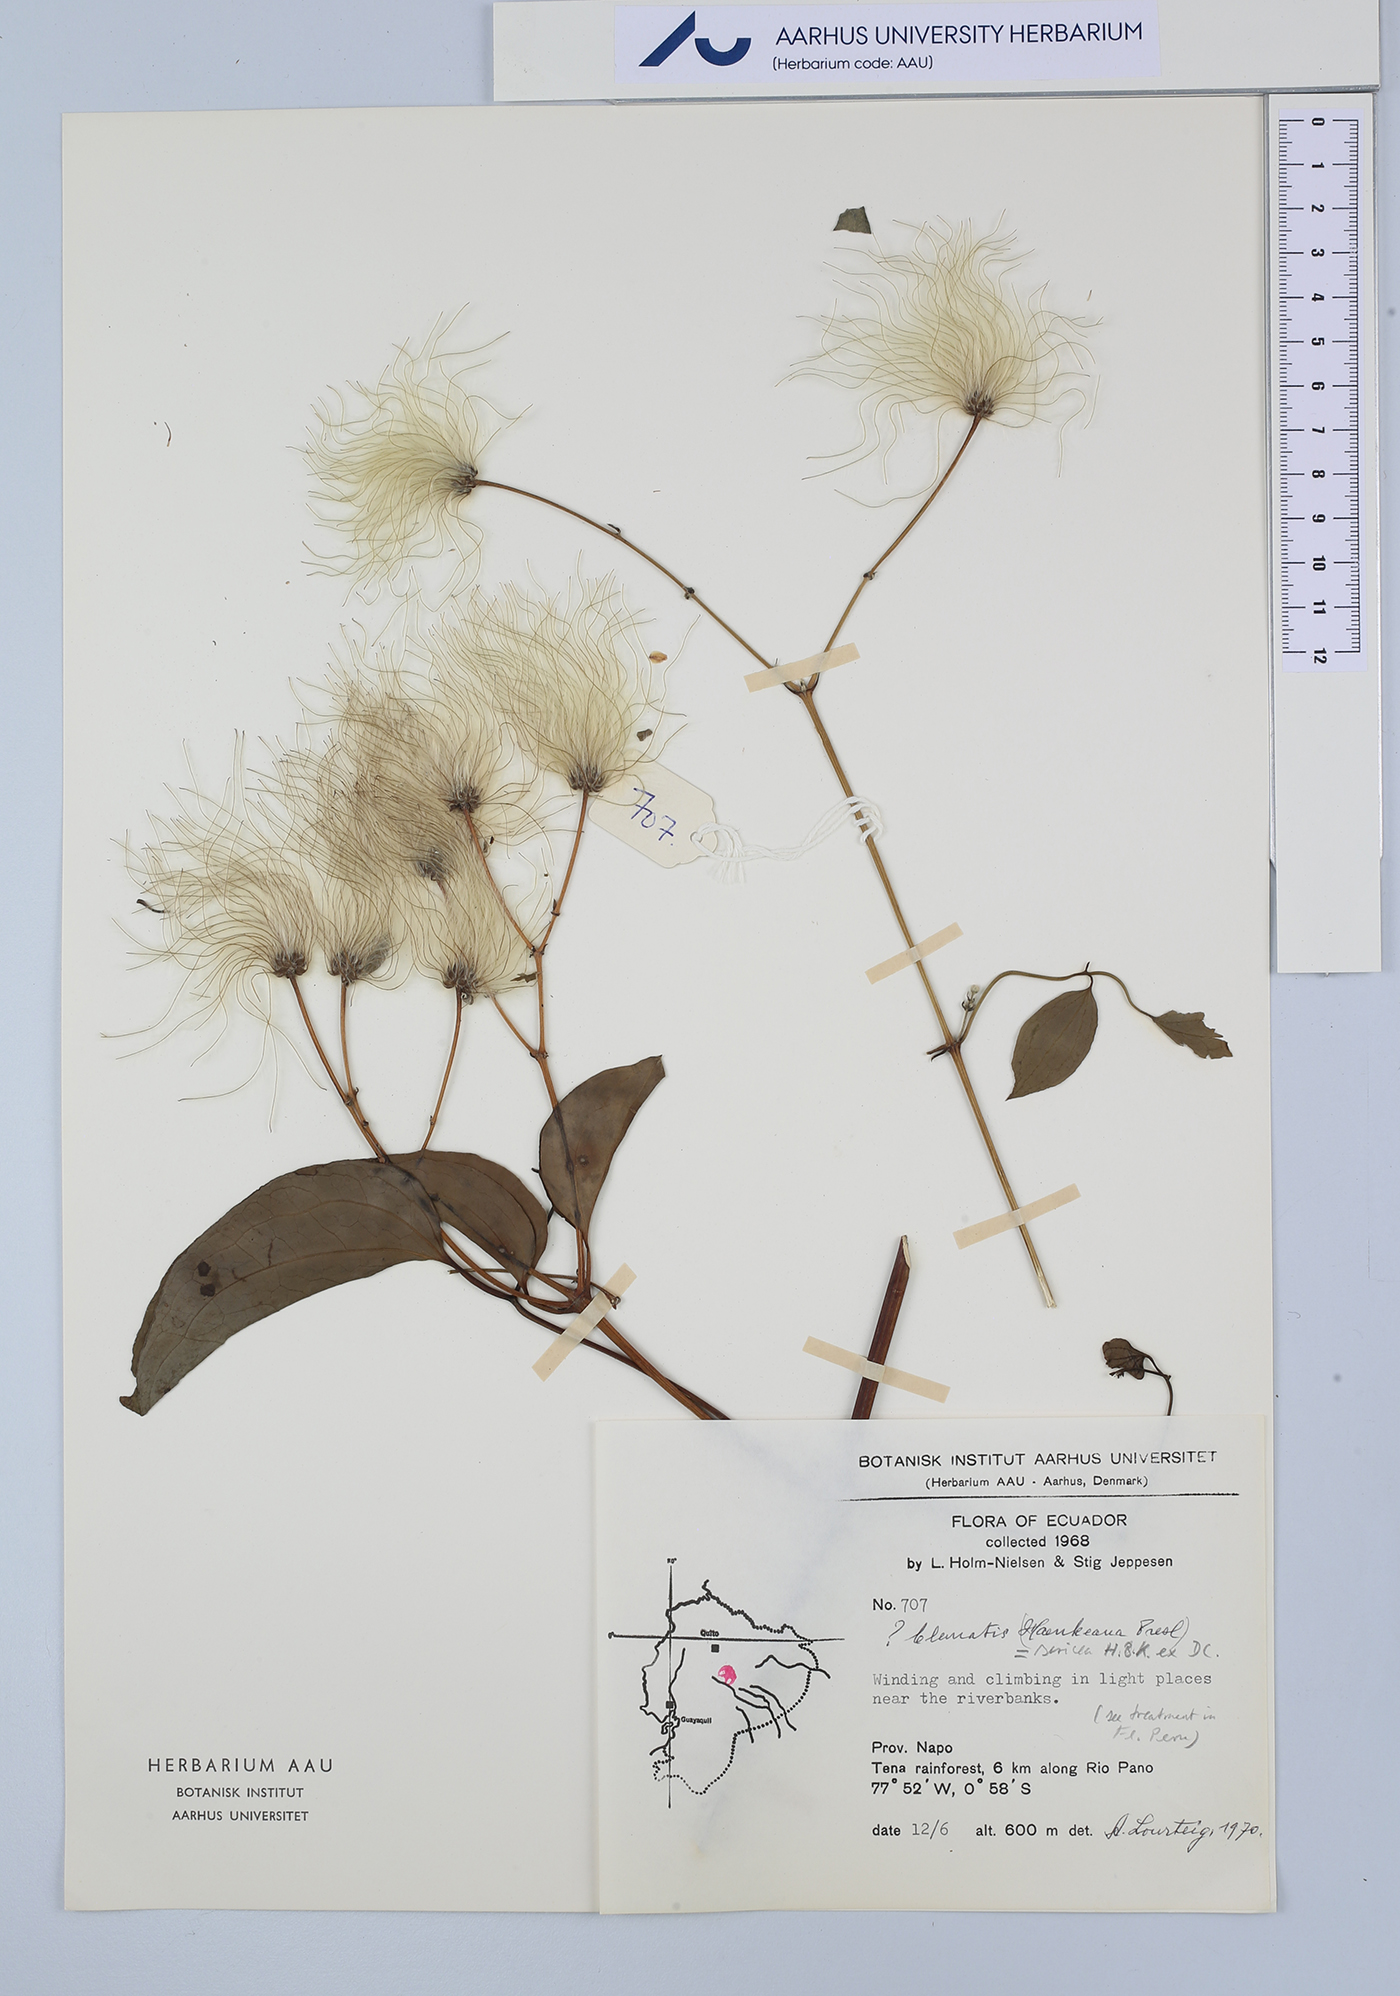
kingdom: Plantae
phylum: Tracheophyta
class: Magnoliopsida
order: Ranunculales
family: Ranunculaceae
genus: Clematis
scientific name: Clematis haenkeana
